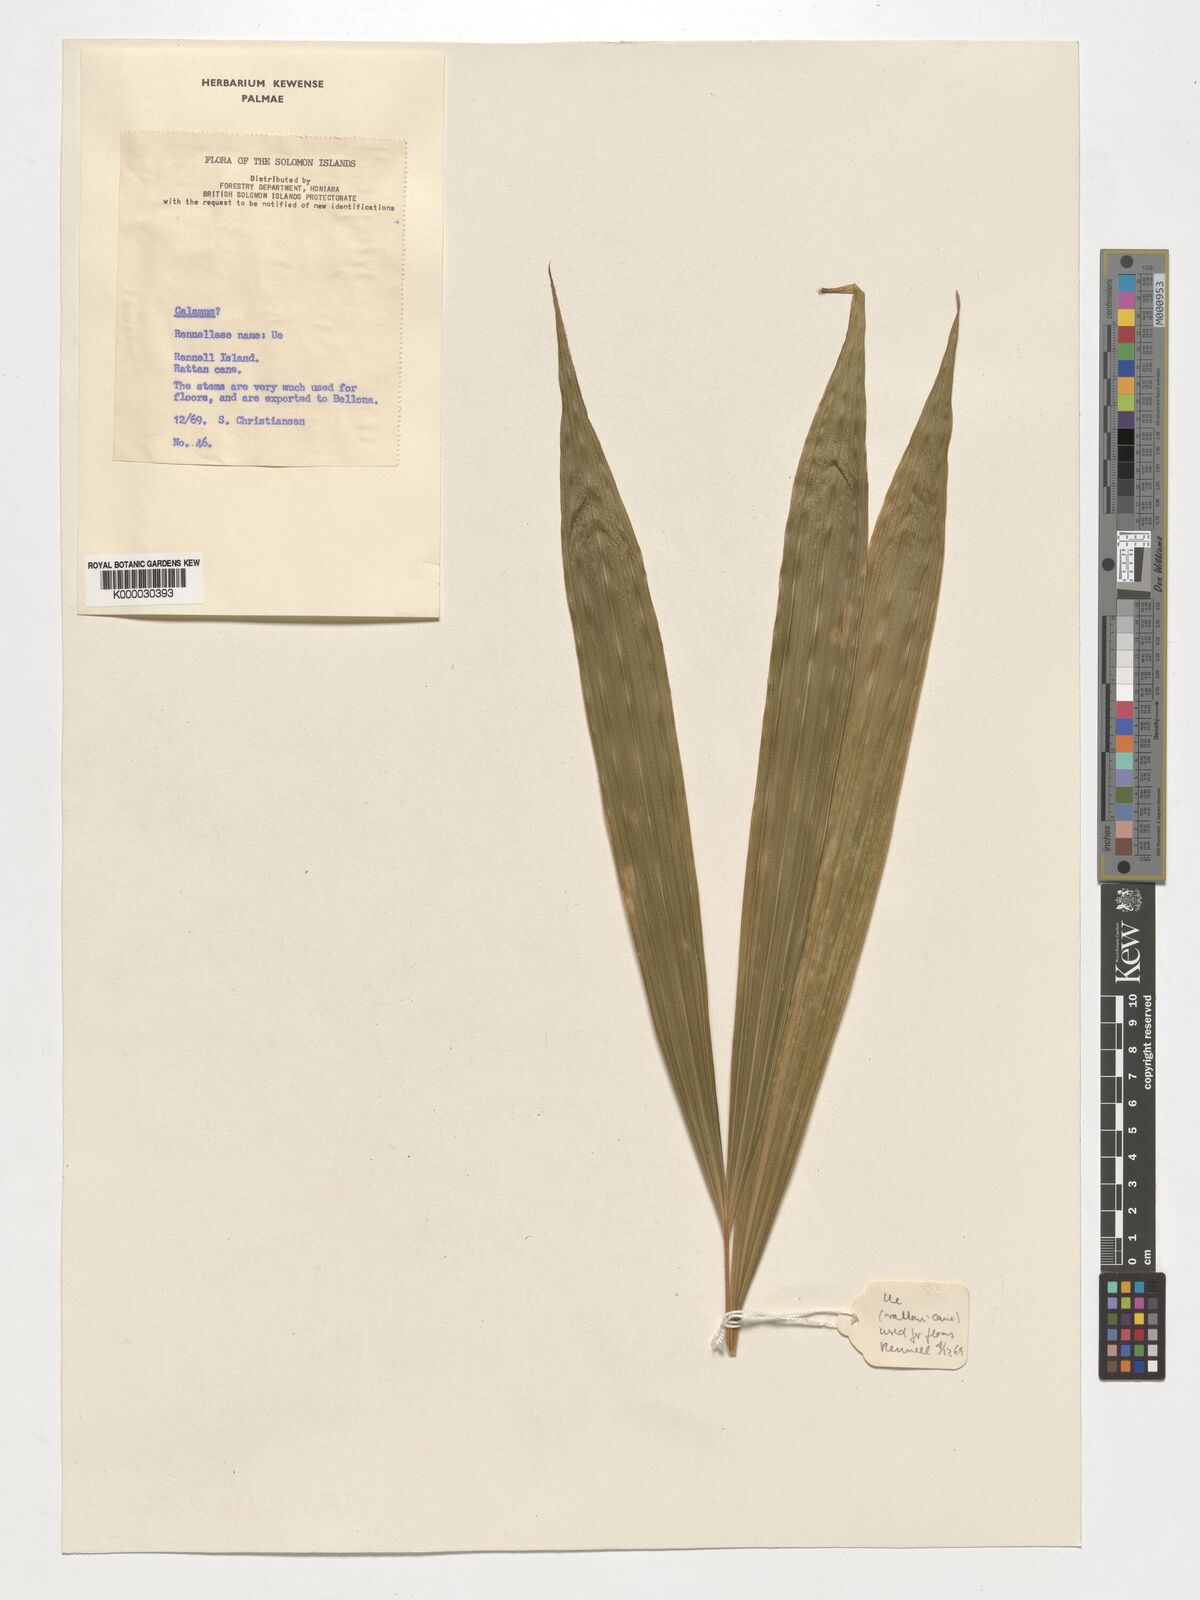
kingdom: Plantae
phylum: Tracheophyta
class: Liliopsida
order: Arecales
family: Arecaceae
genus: Calamus
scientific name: Calamus
